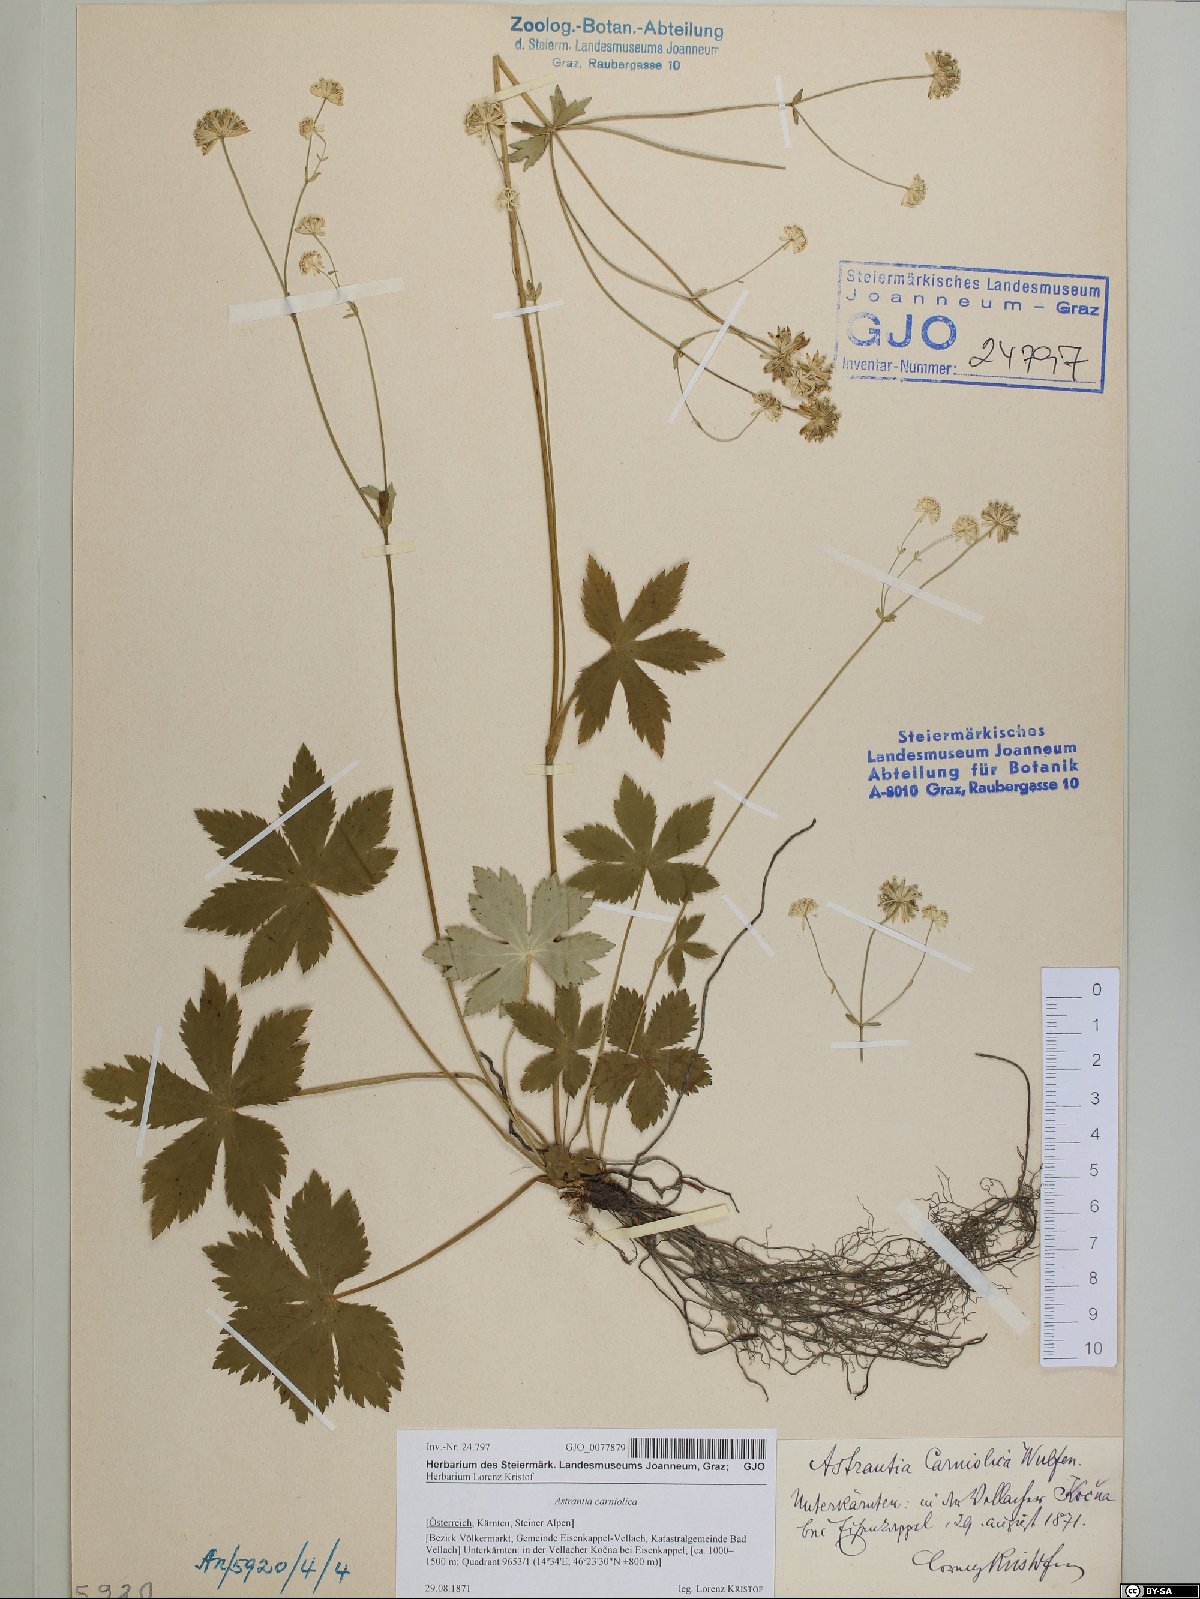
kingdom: Plantae
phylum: Tracheophyta
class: Magnoliopsida
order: Apiales
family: Apiaceae
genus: Astrantia
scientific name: Astrantia carniolica
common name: Carnic masterwort
